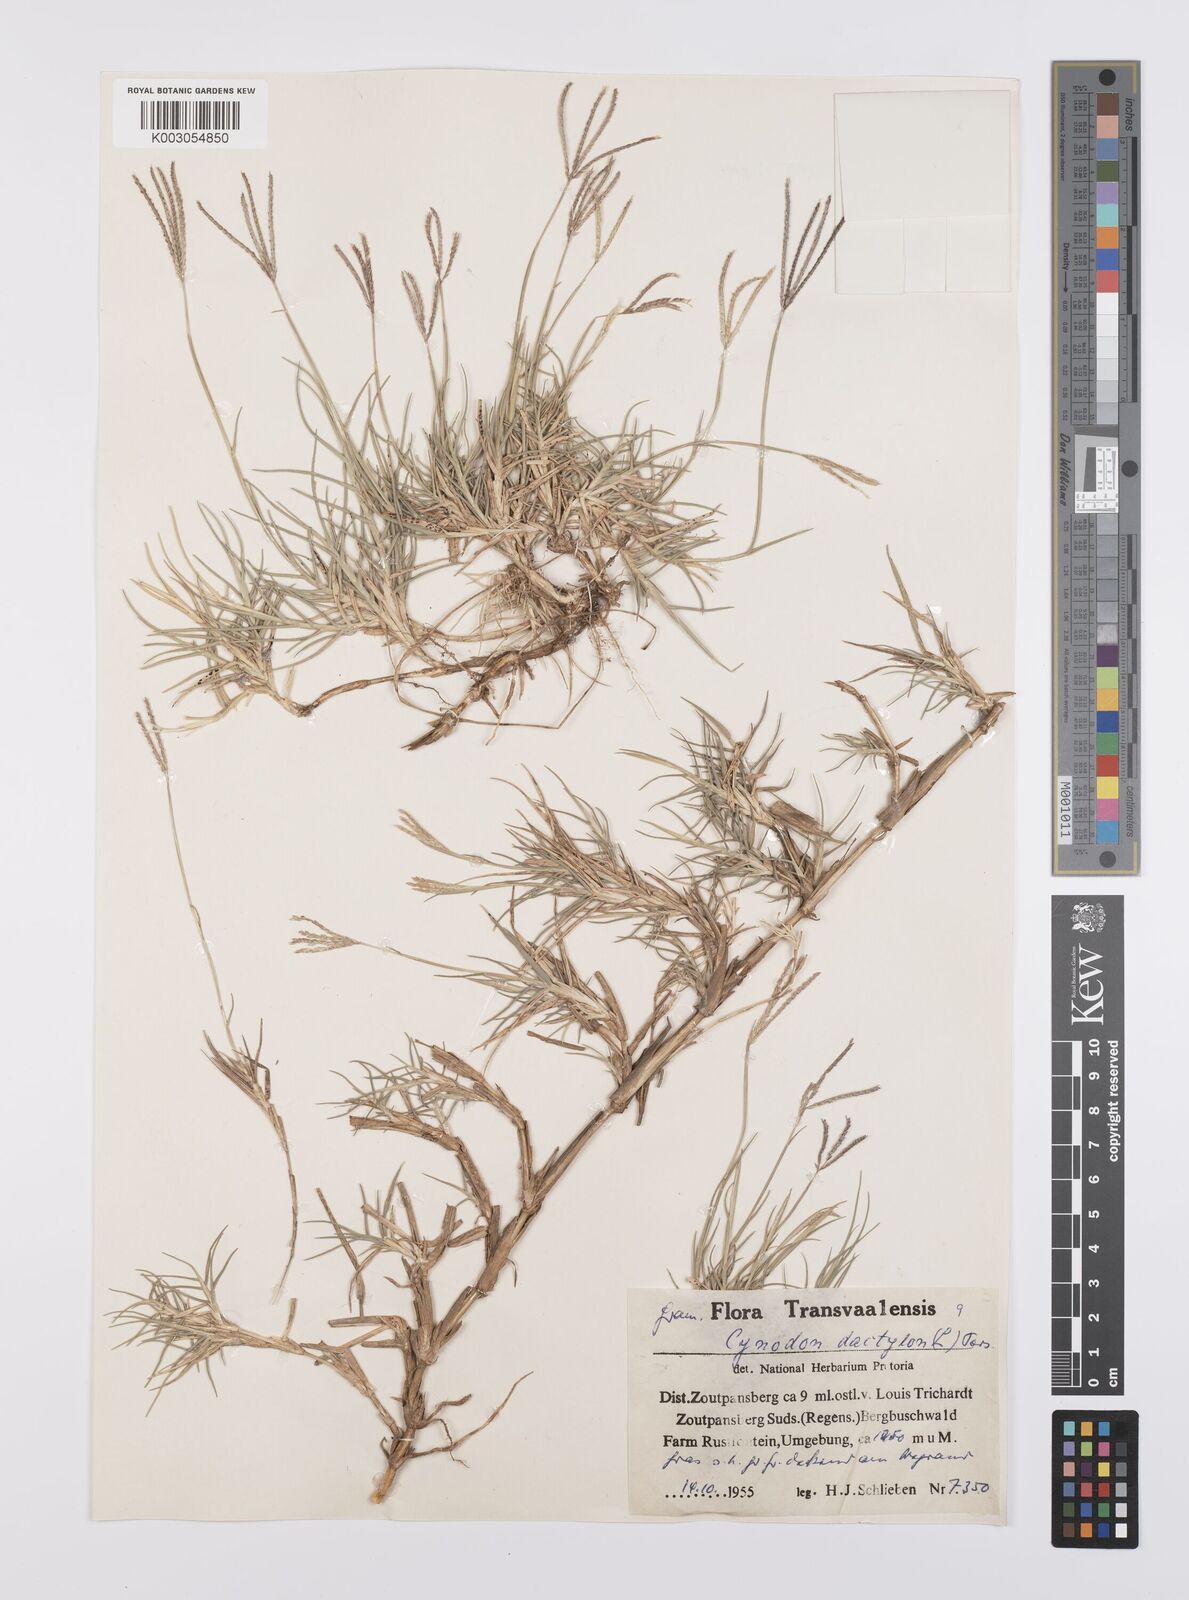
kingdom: Plantae
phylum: Tracheophyta
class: Liliopsida
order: Poales
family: Poaceae
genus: Cynodon
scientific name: Cynodon dactylon
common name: Bermuda grass
